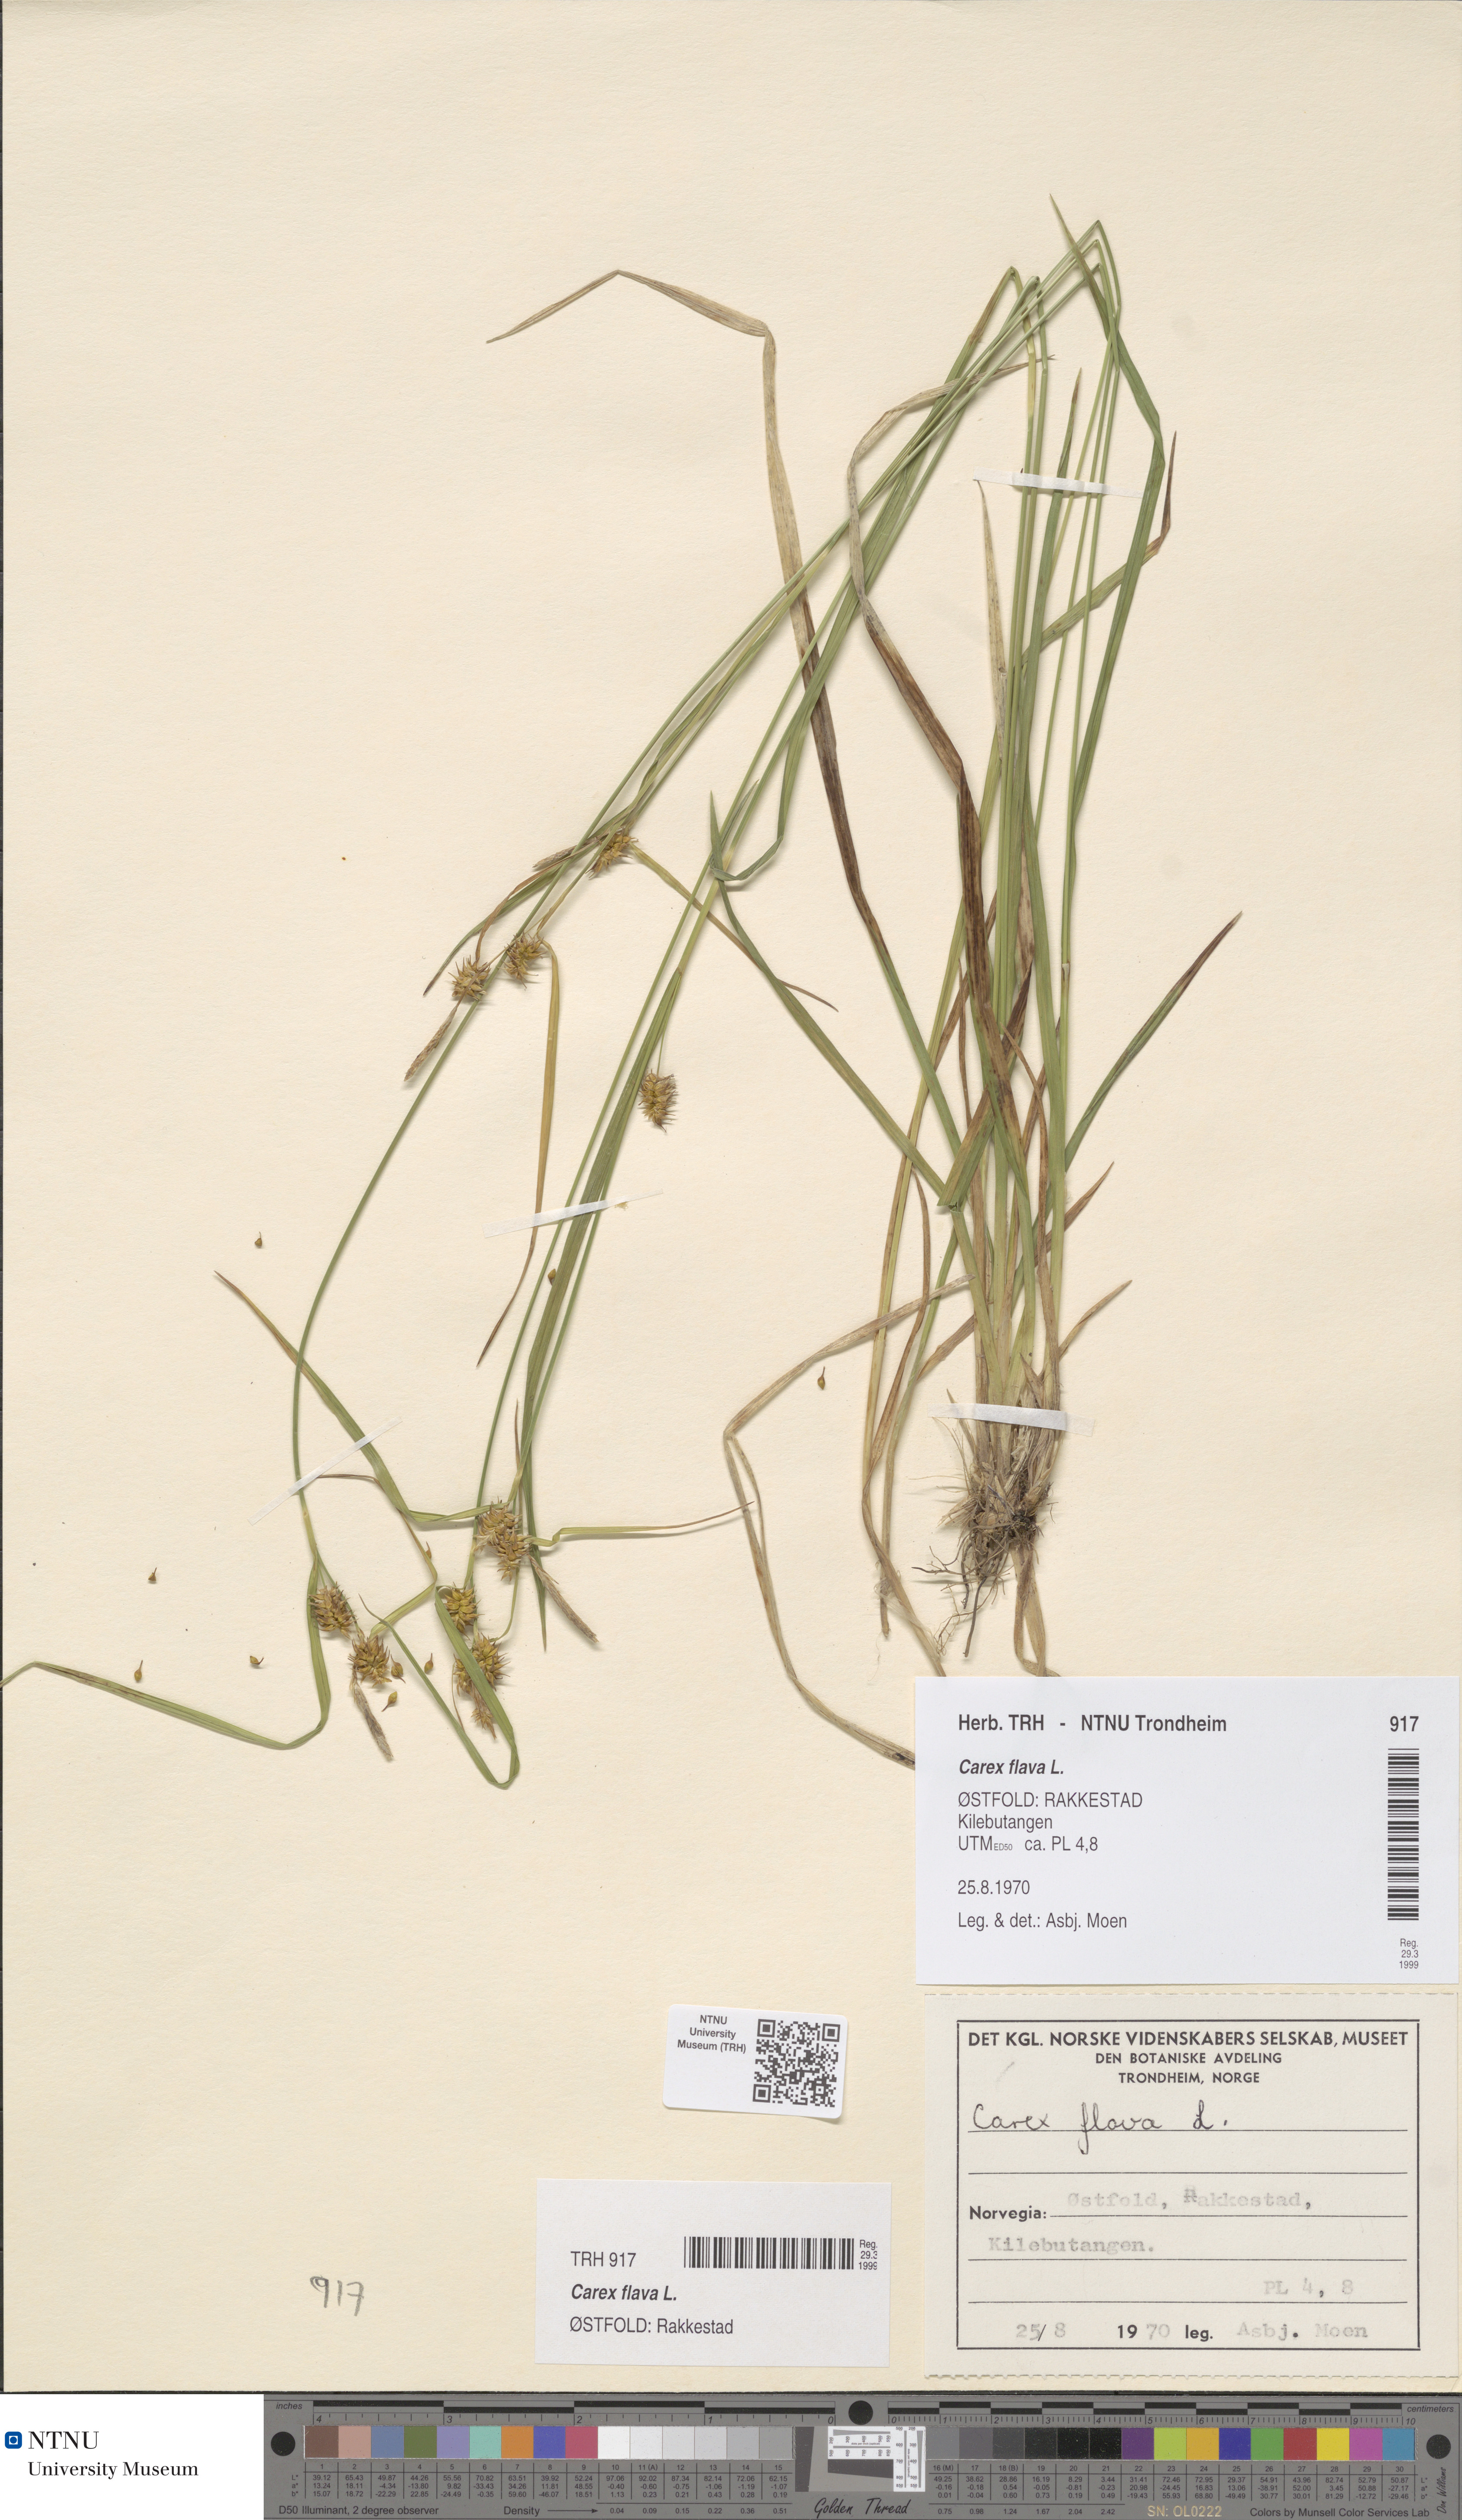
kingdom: Plantae
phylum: Tracheophyta
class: Liliopsida
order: Poales
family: Cyperaceae
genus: Carex
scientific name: Carex flava
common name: Large yellow-sedge
